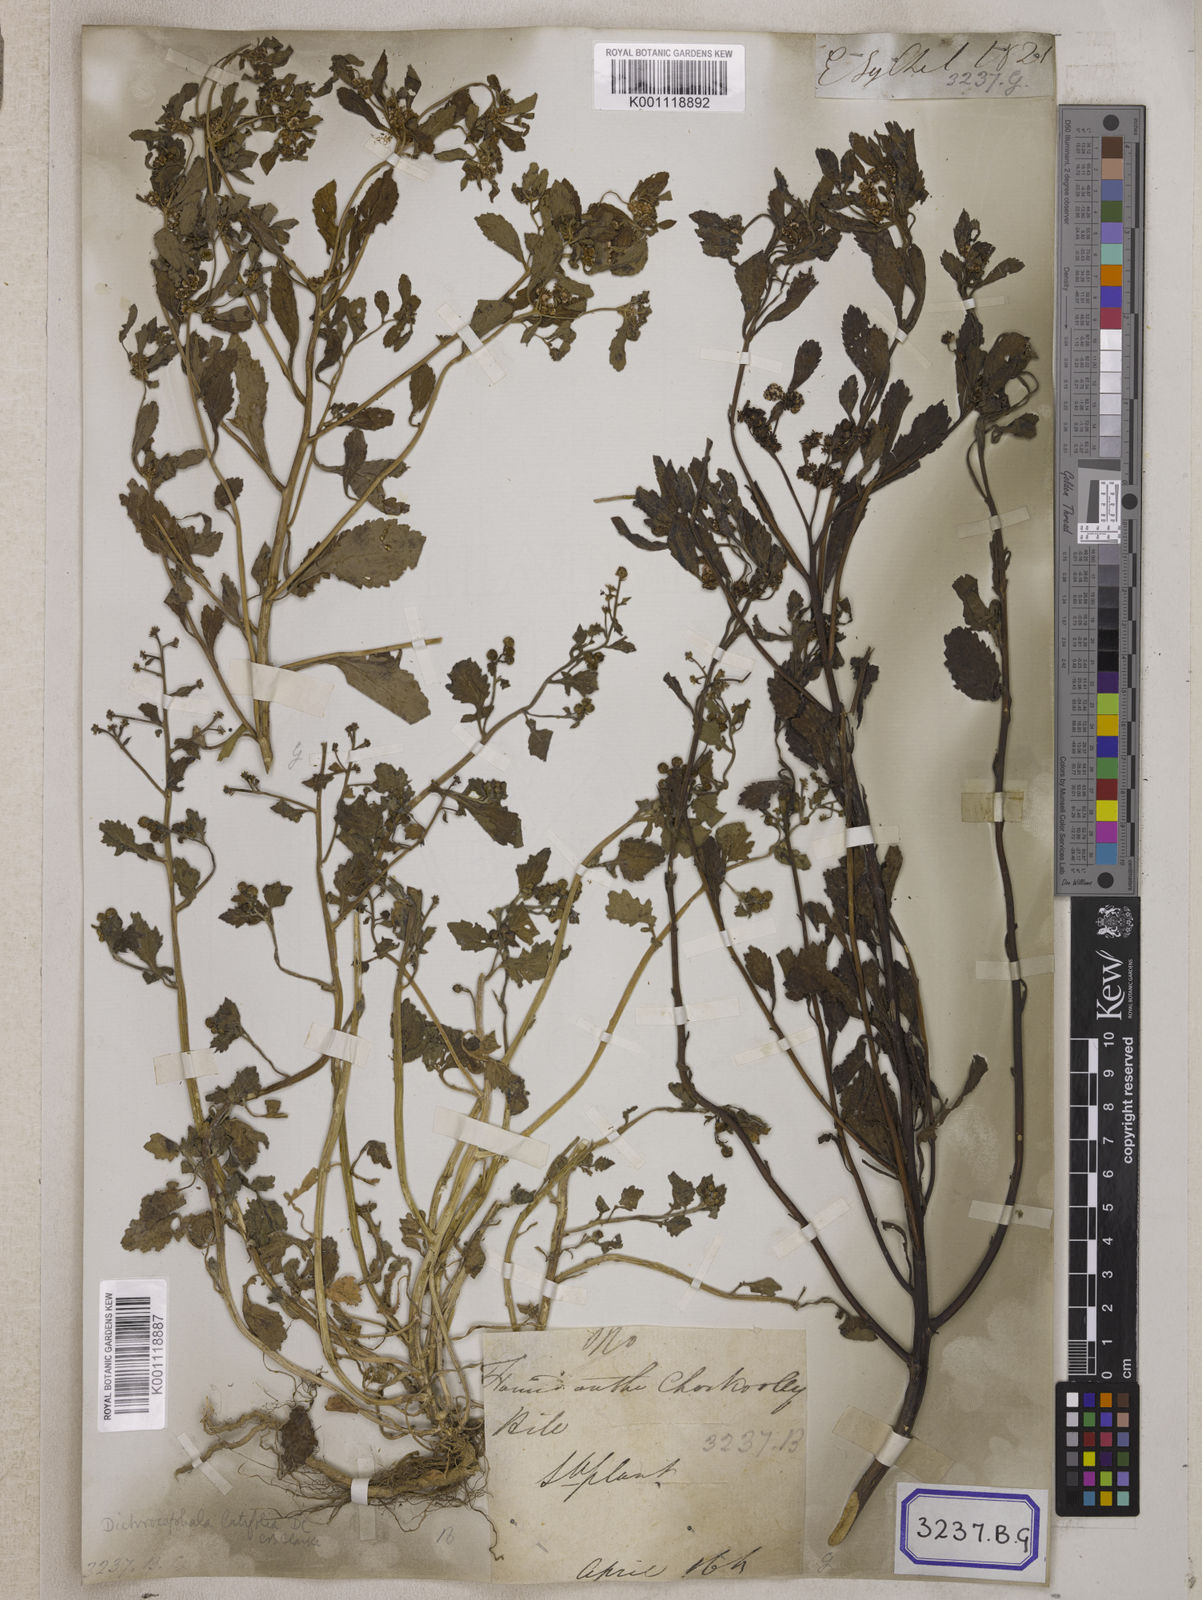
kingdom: Plantae
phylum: Tracheophyta
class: Magnoliopsida
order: Asterales
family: Asteraceae
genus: Thespis
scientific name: Thespis divaricata
